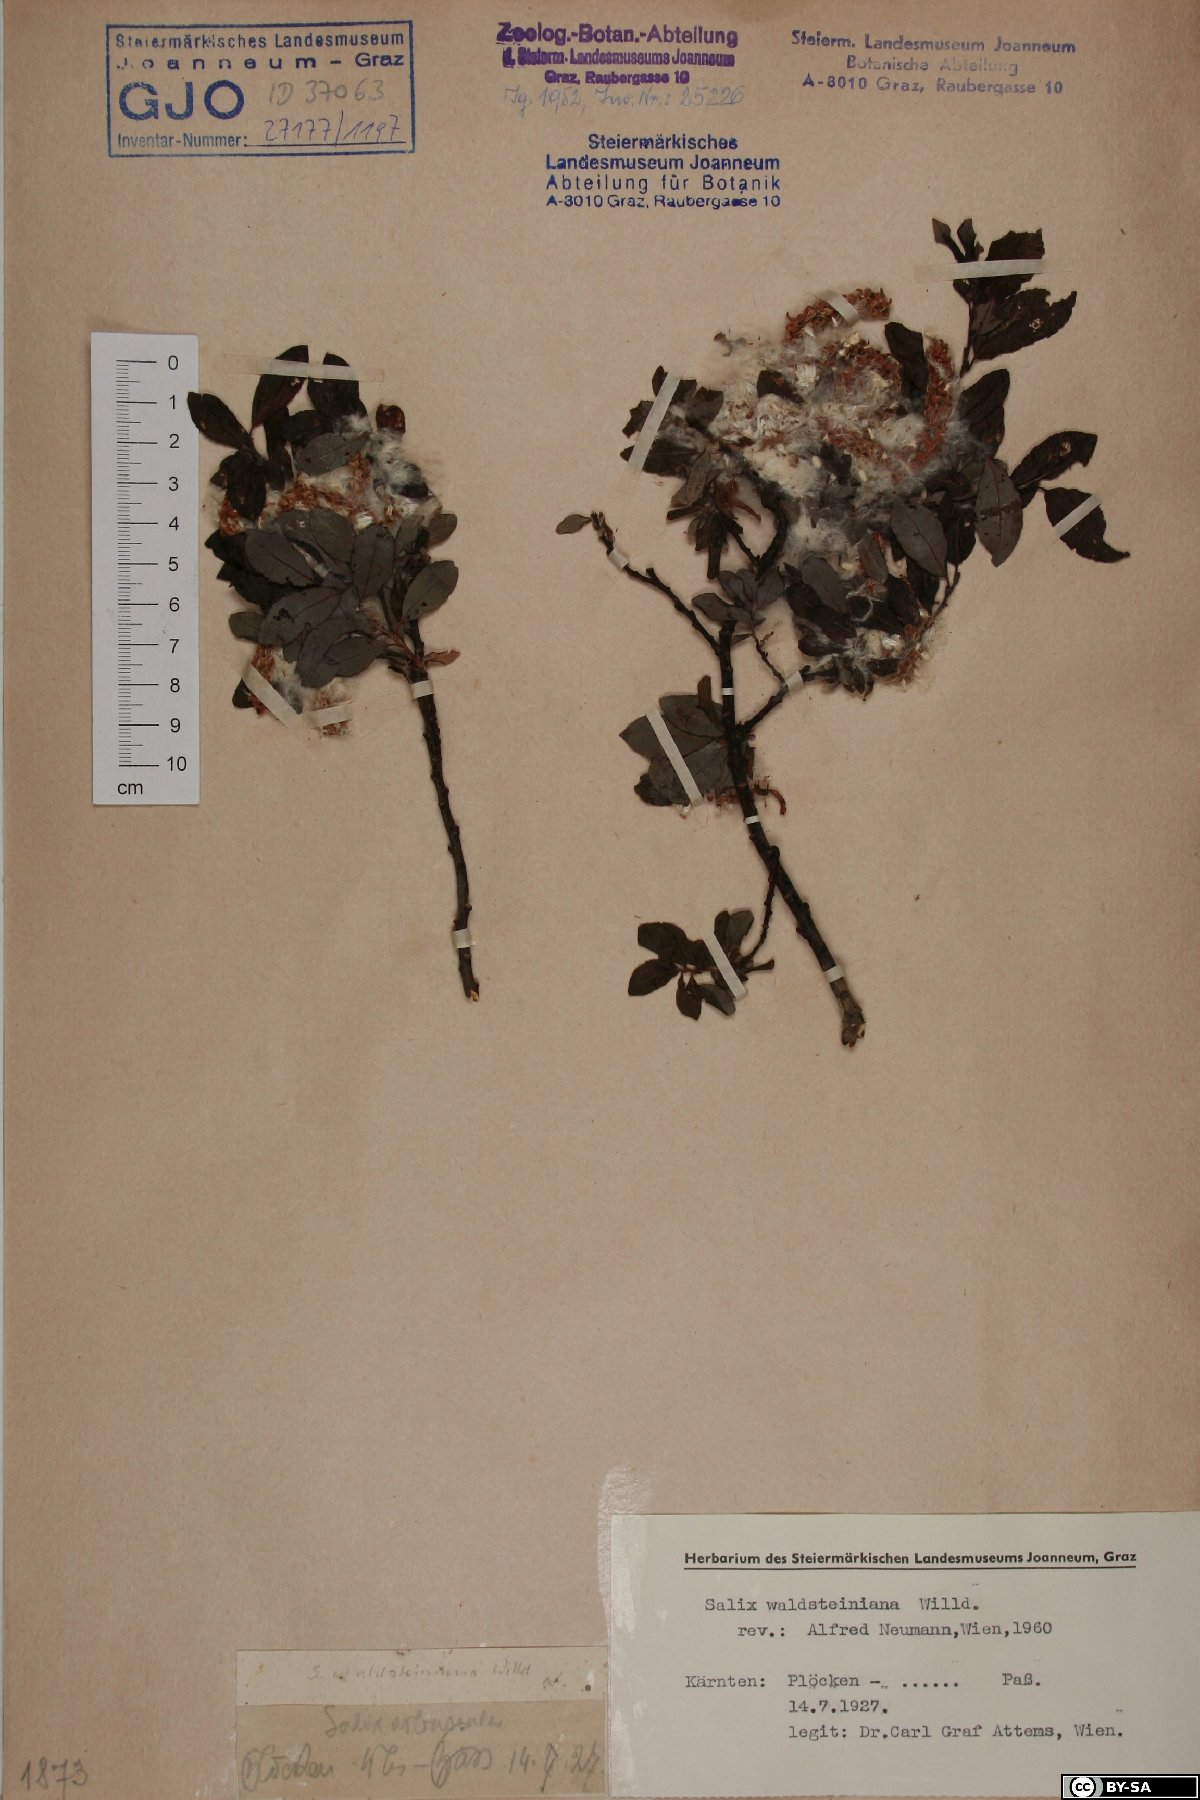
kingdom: Plantae
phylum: Tracheophyta
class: Magnoliopsida
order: Malpighiales
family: Salicaceae
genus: Salix
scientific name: Salix waldsteiniana
